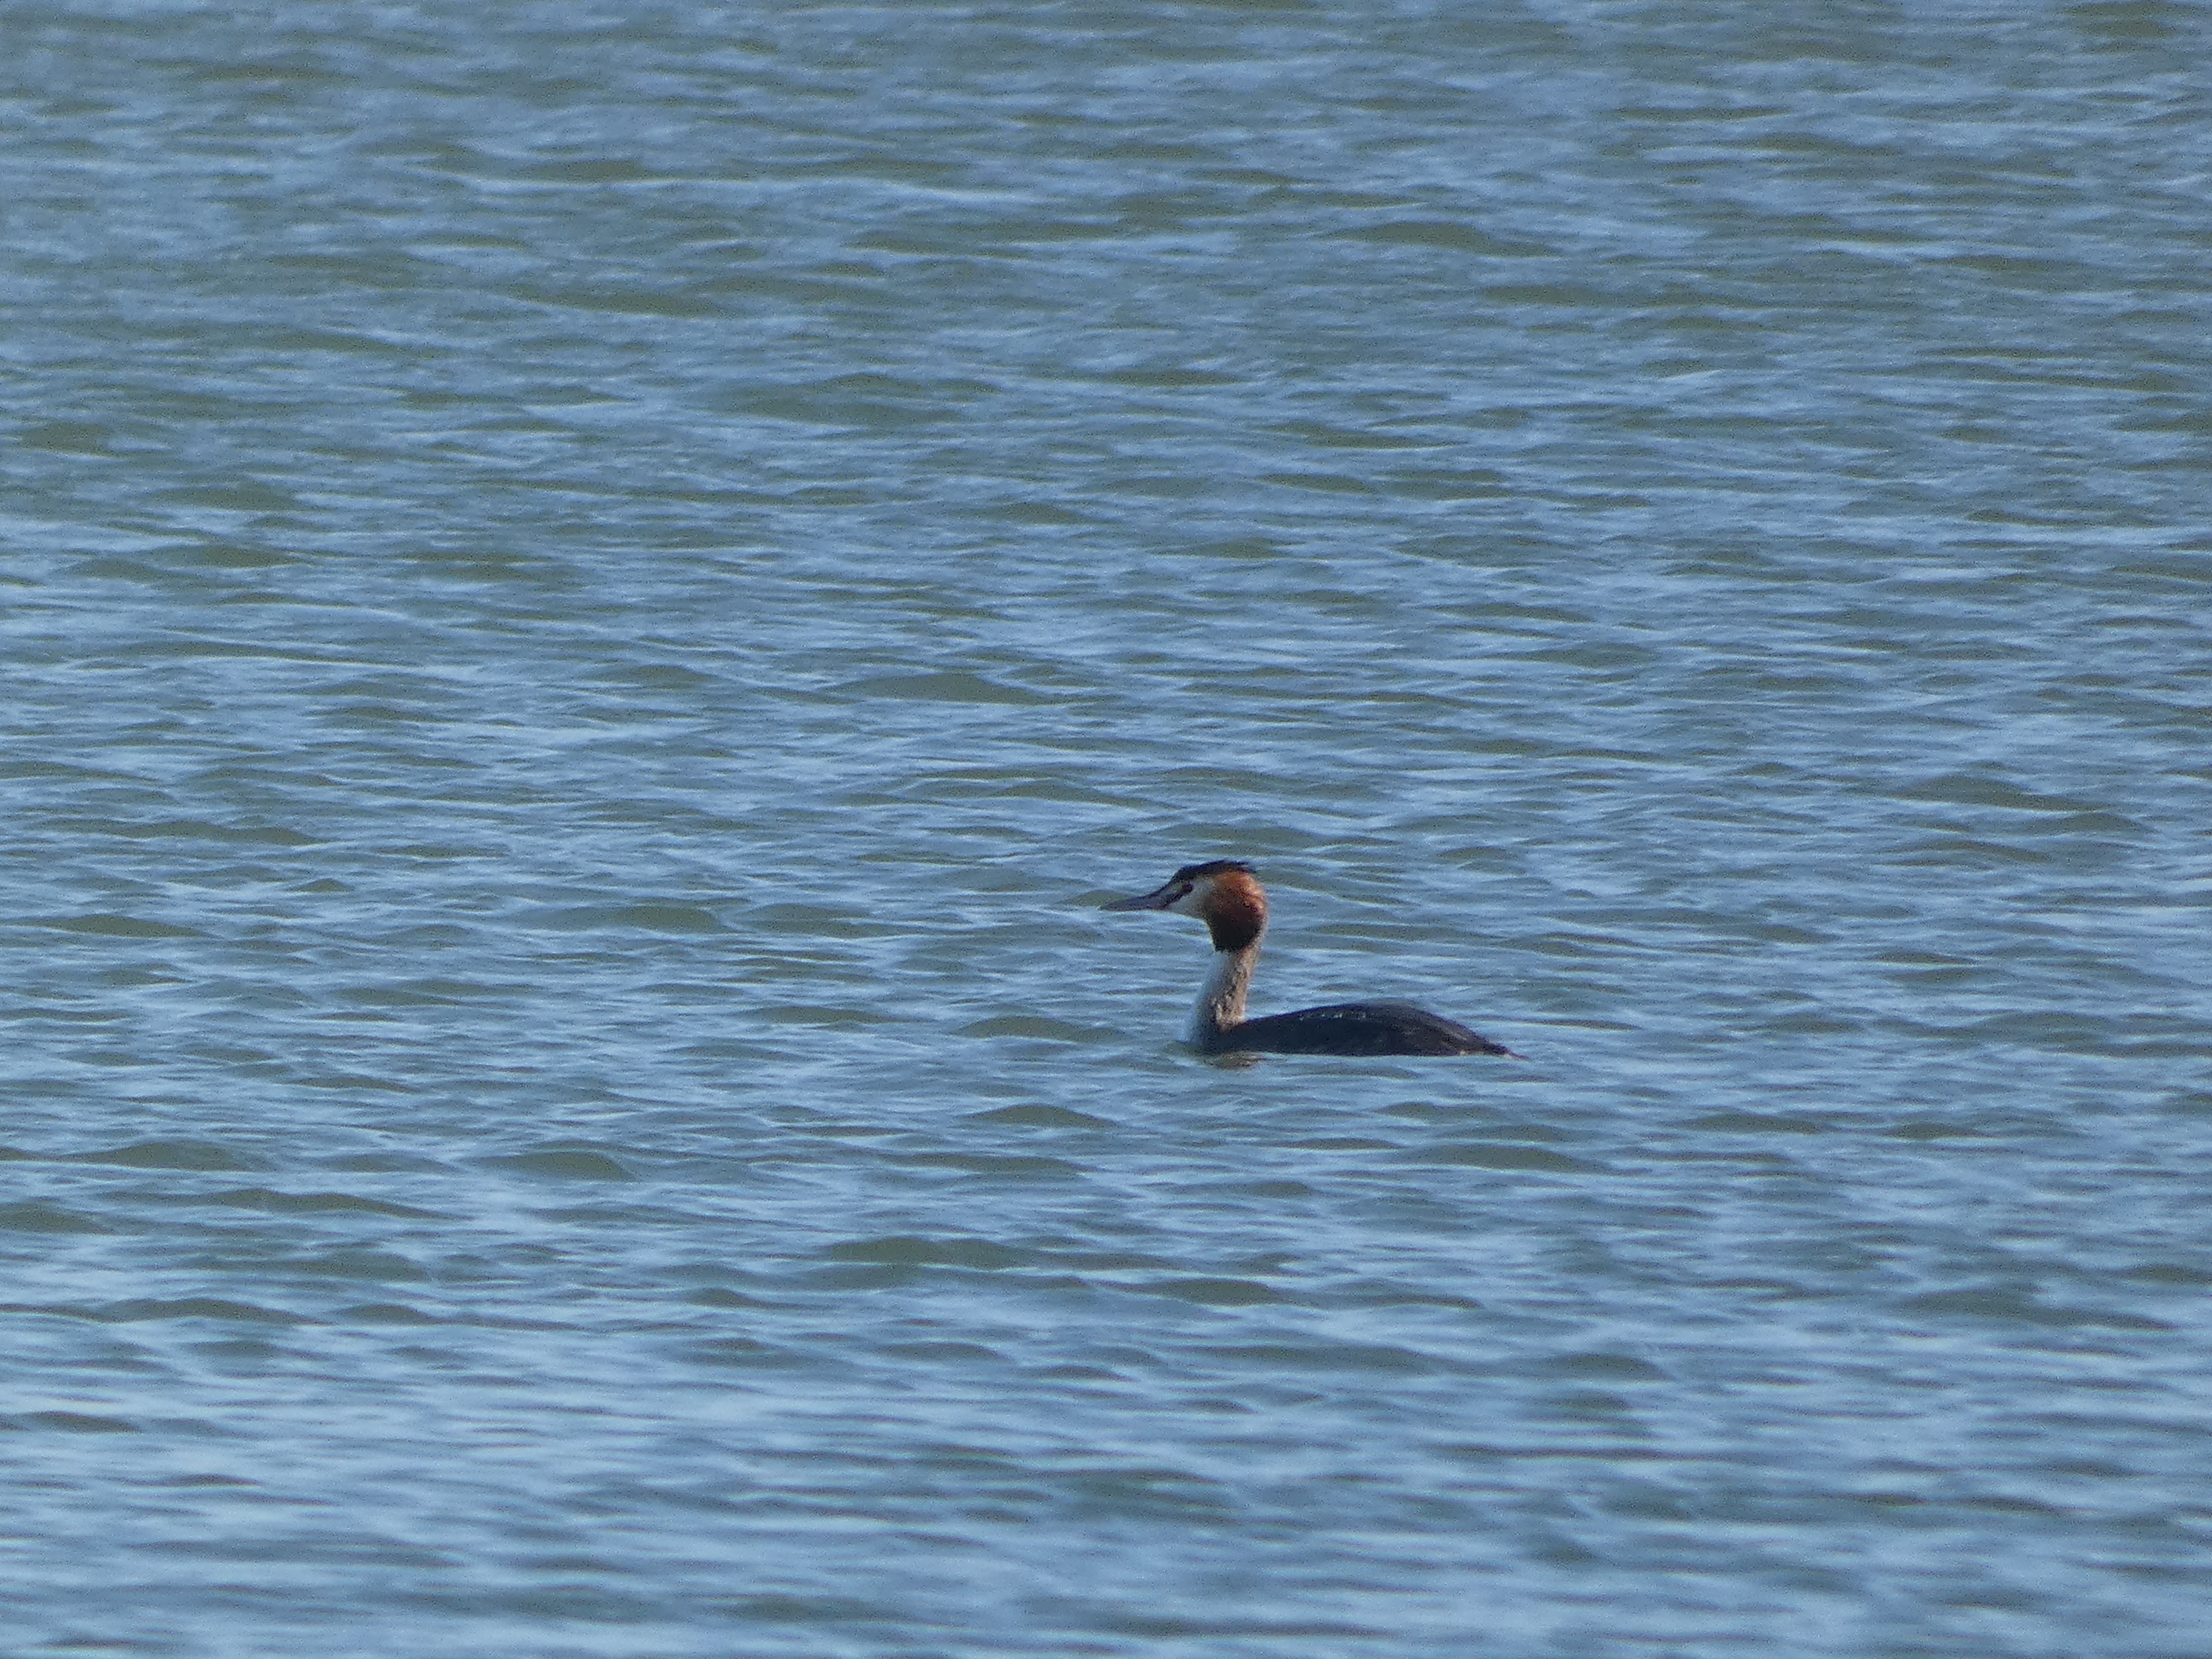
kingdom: Animalia
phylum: Chordata
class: Aves
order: Podicipediformes
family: Podicipedidae
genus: Podiceps
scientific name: Podiceps cristatus
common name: Toppet lappedykker
